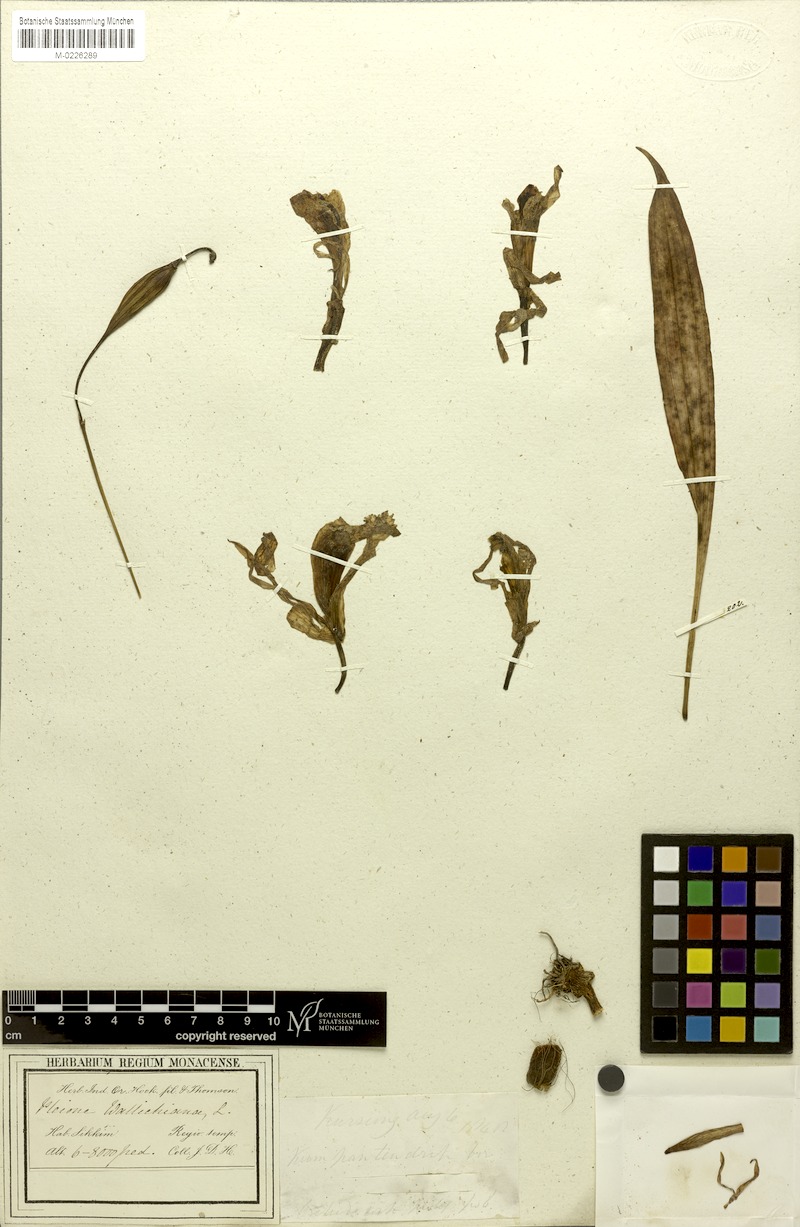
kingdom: Plantae
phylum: Tracheophyta
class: Liliopsida
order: Asparagales
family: Orchidaceae
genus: Pleione
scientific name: Pleione praecox
